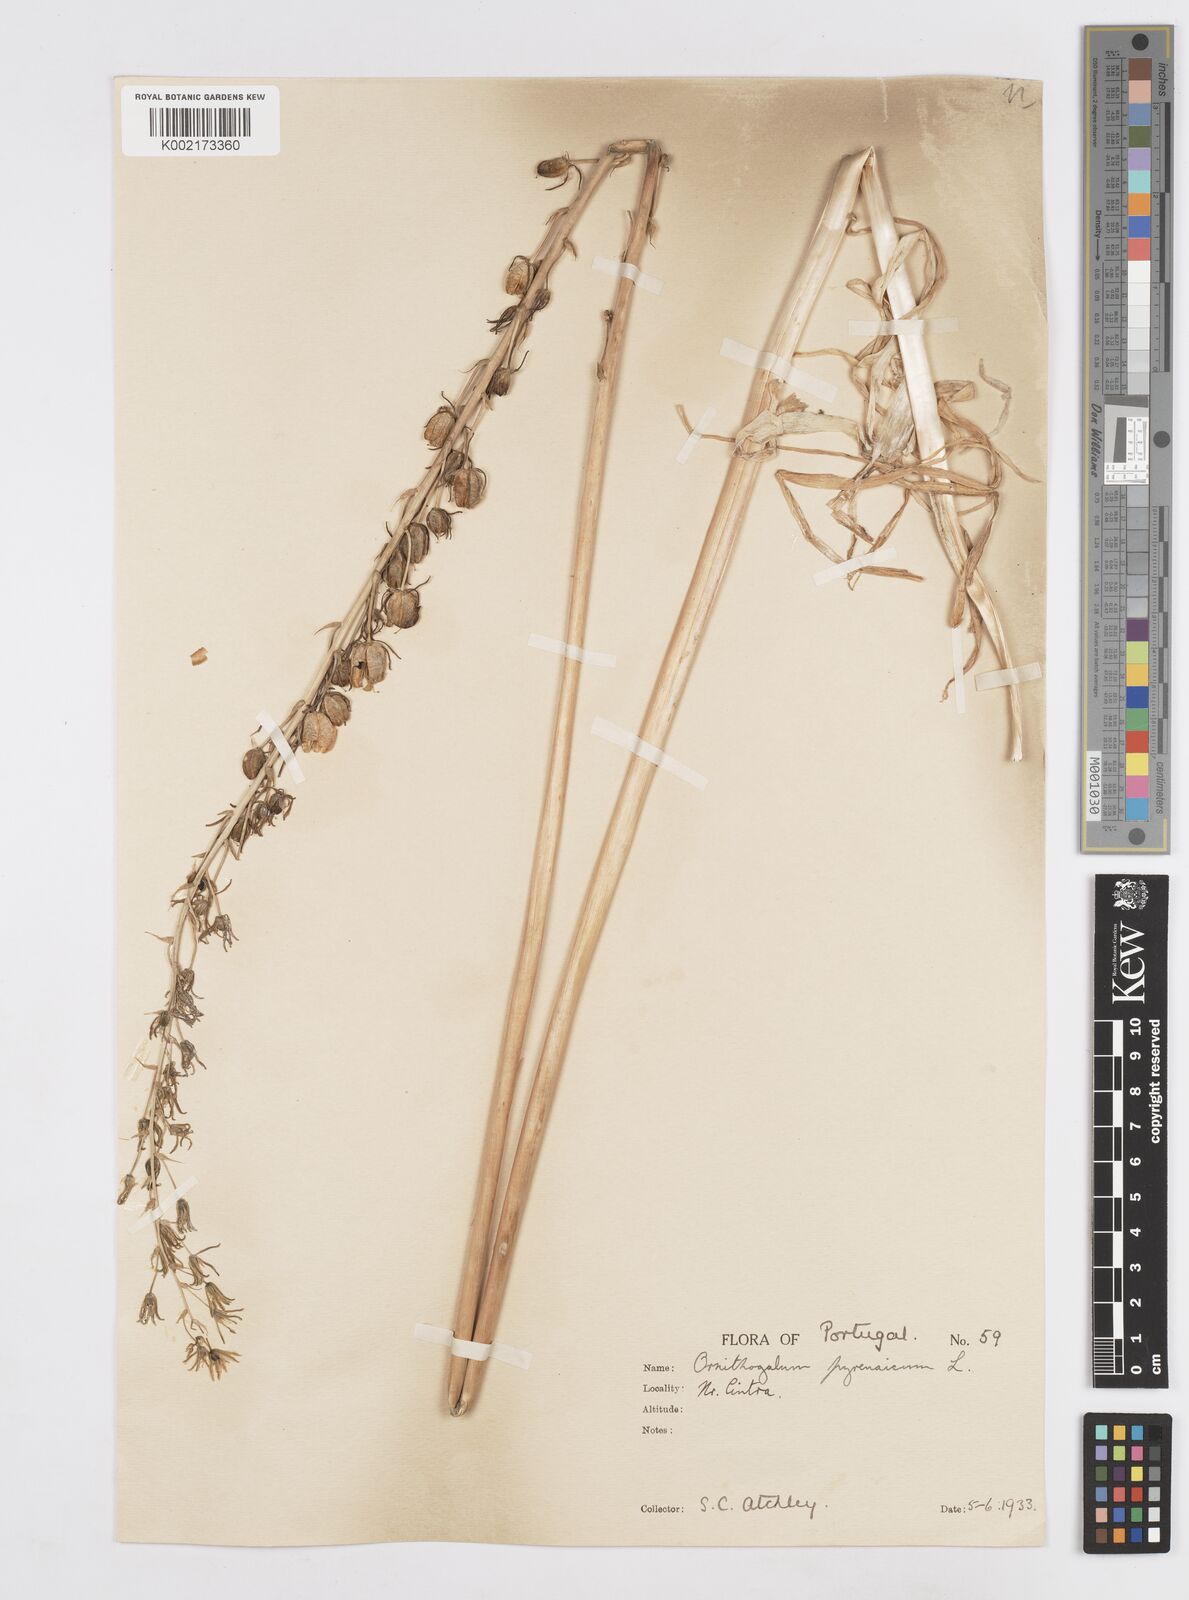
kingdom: Plantae
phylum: Tracheophyta
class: Liliopsida
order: Asparagales
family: Asparagaceae
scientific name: Asparagaceae
